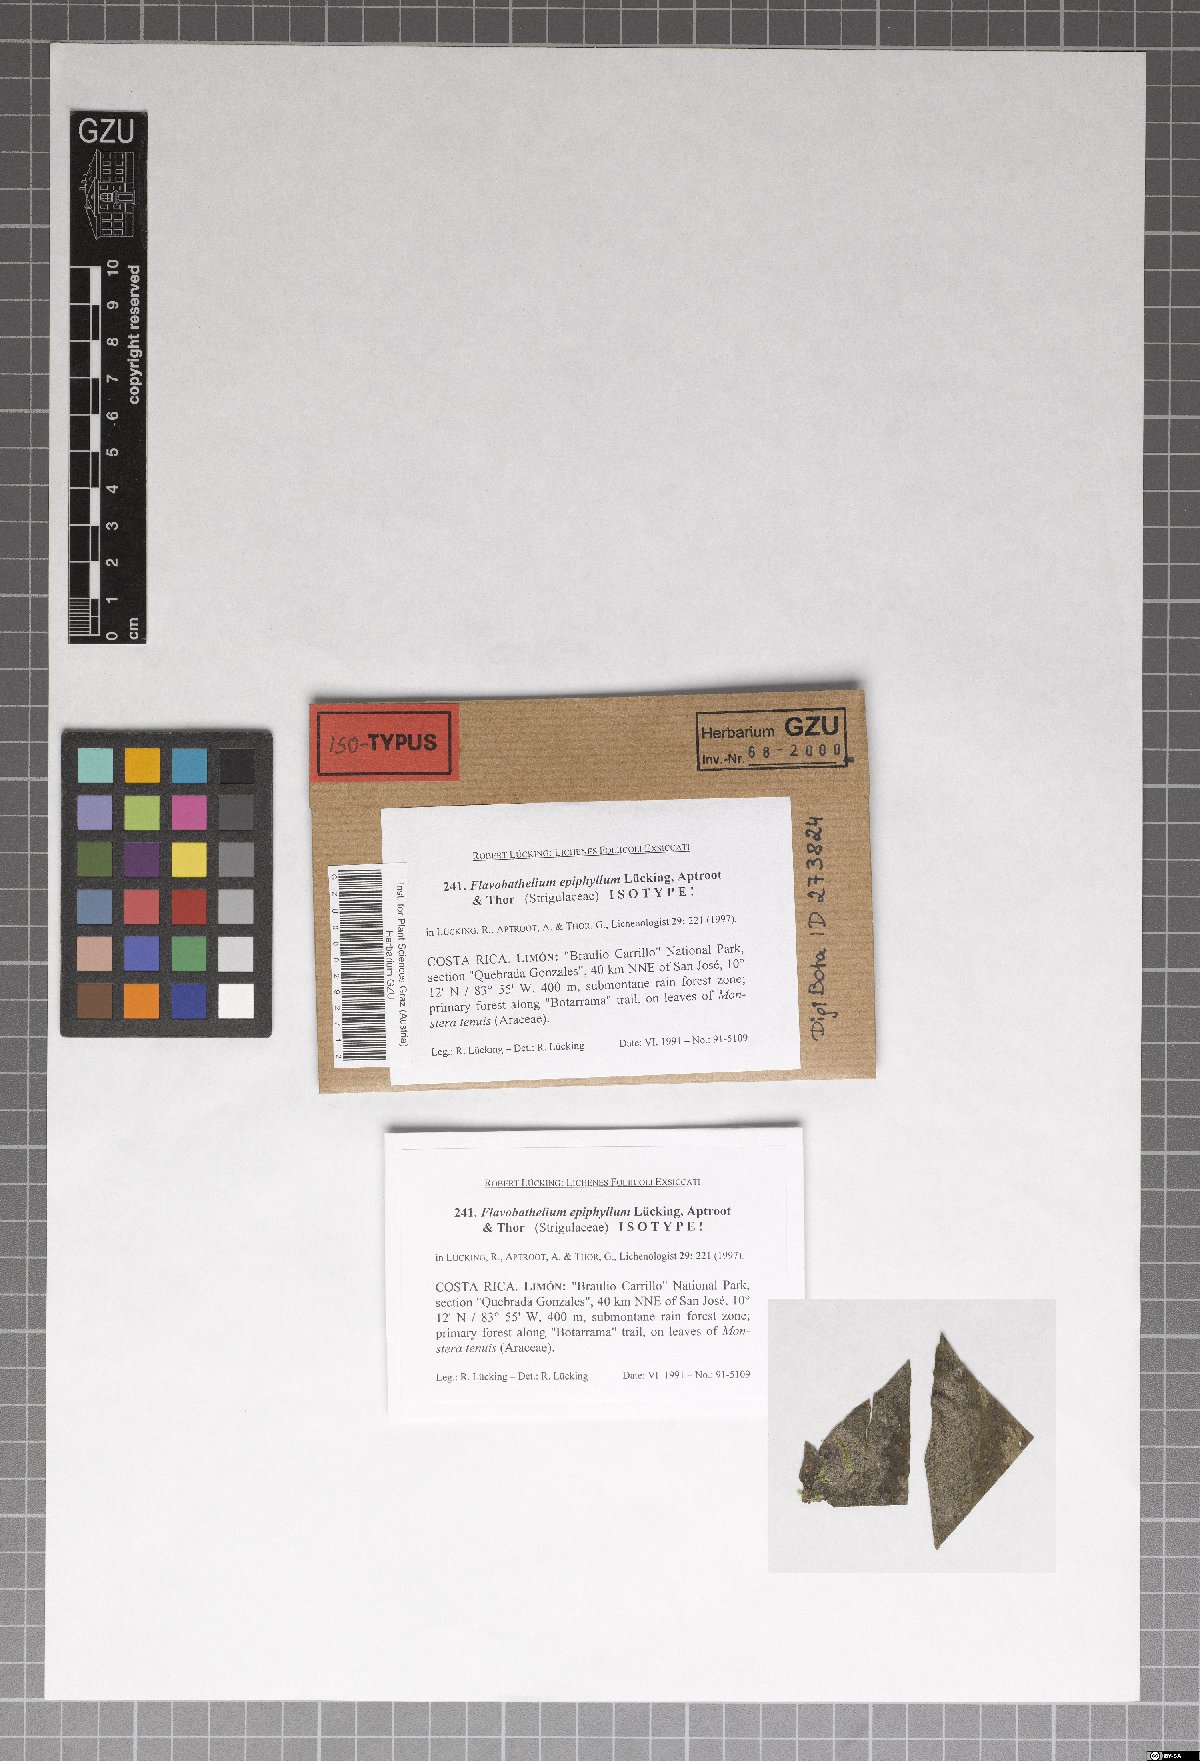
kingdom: Fungi
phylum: Ascomycota
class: Dothideomycetes
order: Strigulales
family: Strigulaceae
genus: Flavobathelium
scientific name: Flavobathelium epiphyllum
